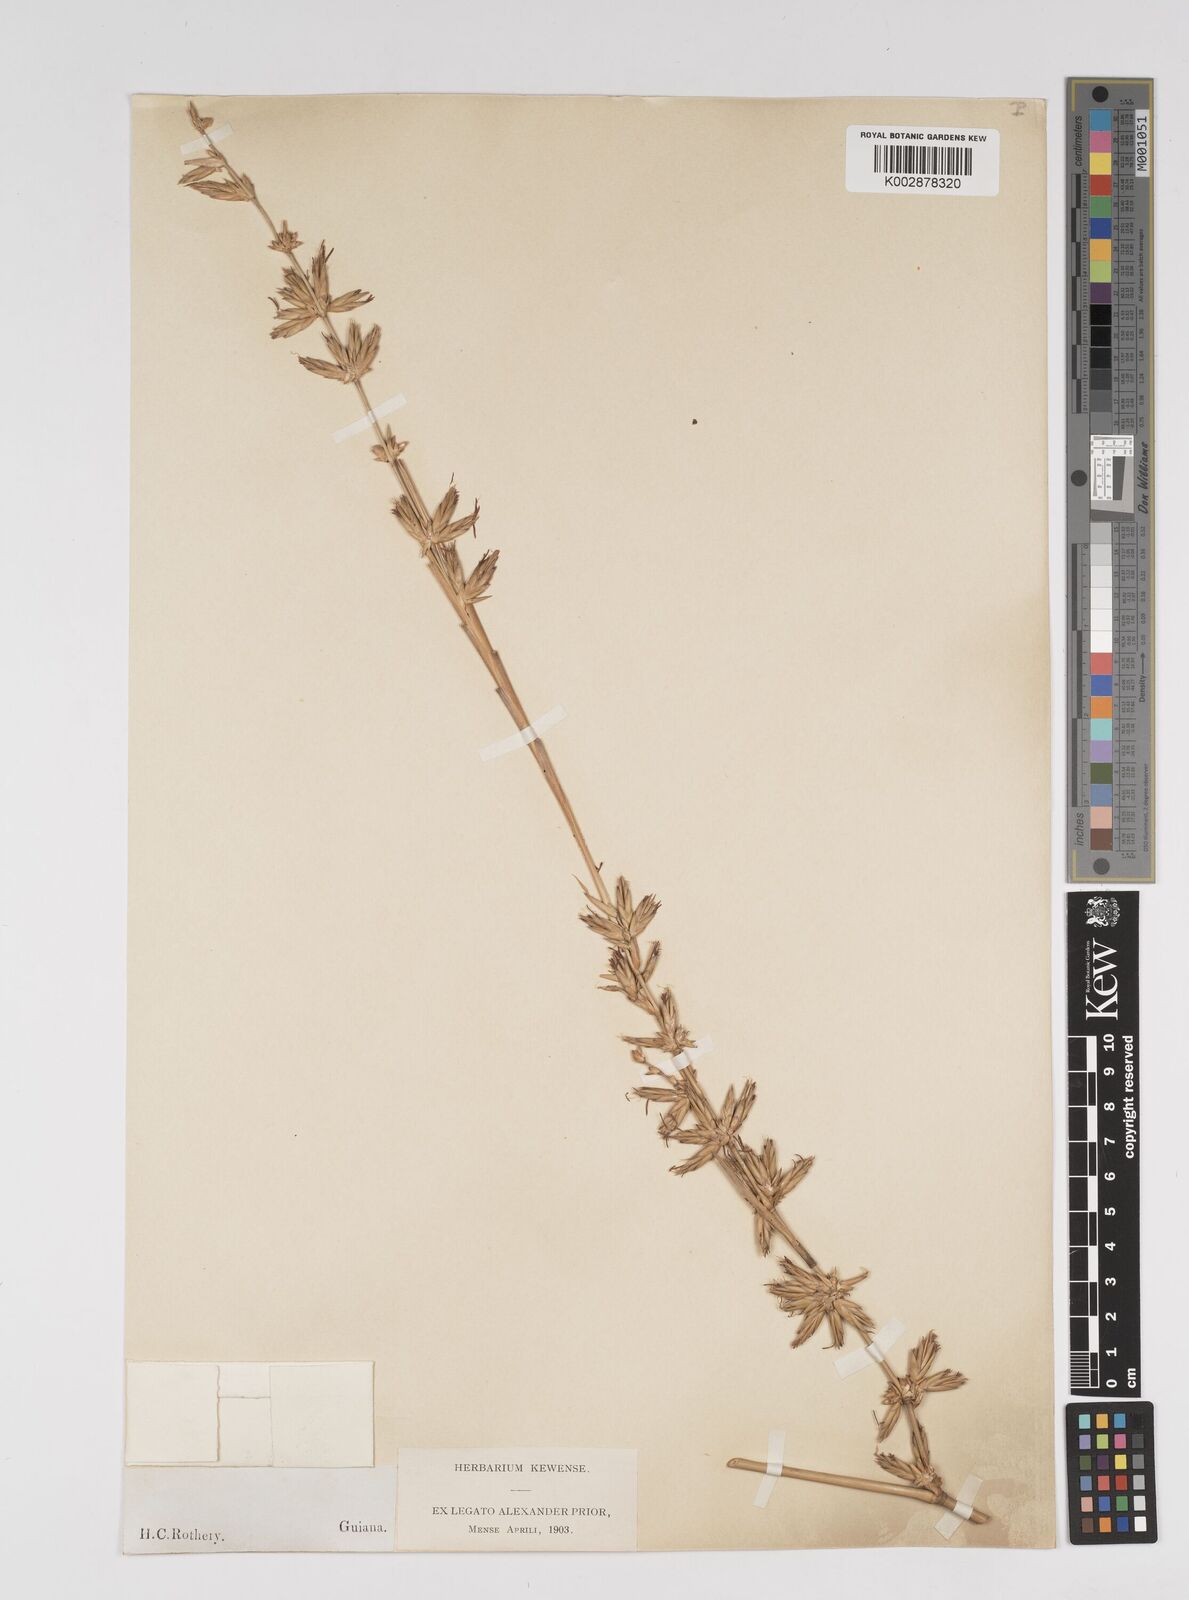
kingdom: Plantae
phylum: Tracheophyta
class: Liliopsida
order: Poales
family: Poaceae
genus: Bambusa
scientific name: Bambusa vulgaris
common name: Common bamboo
